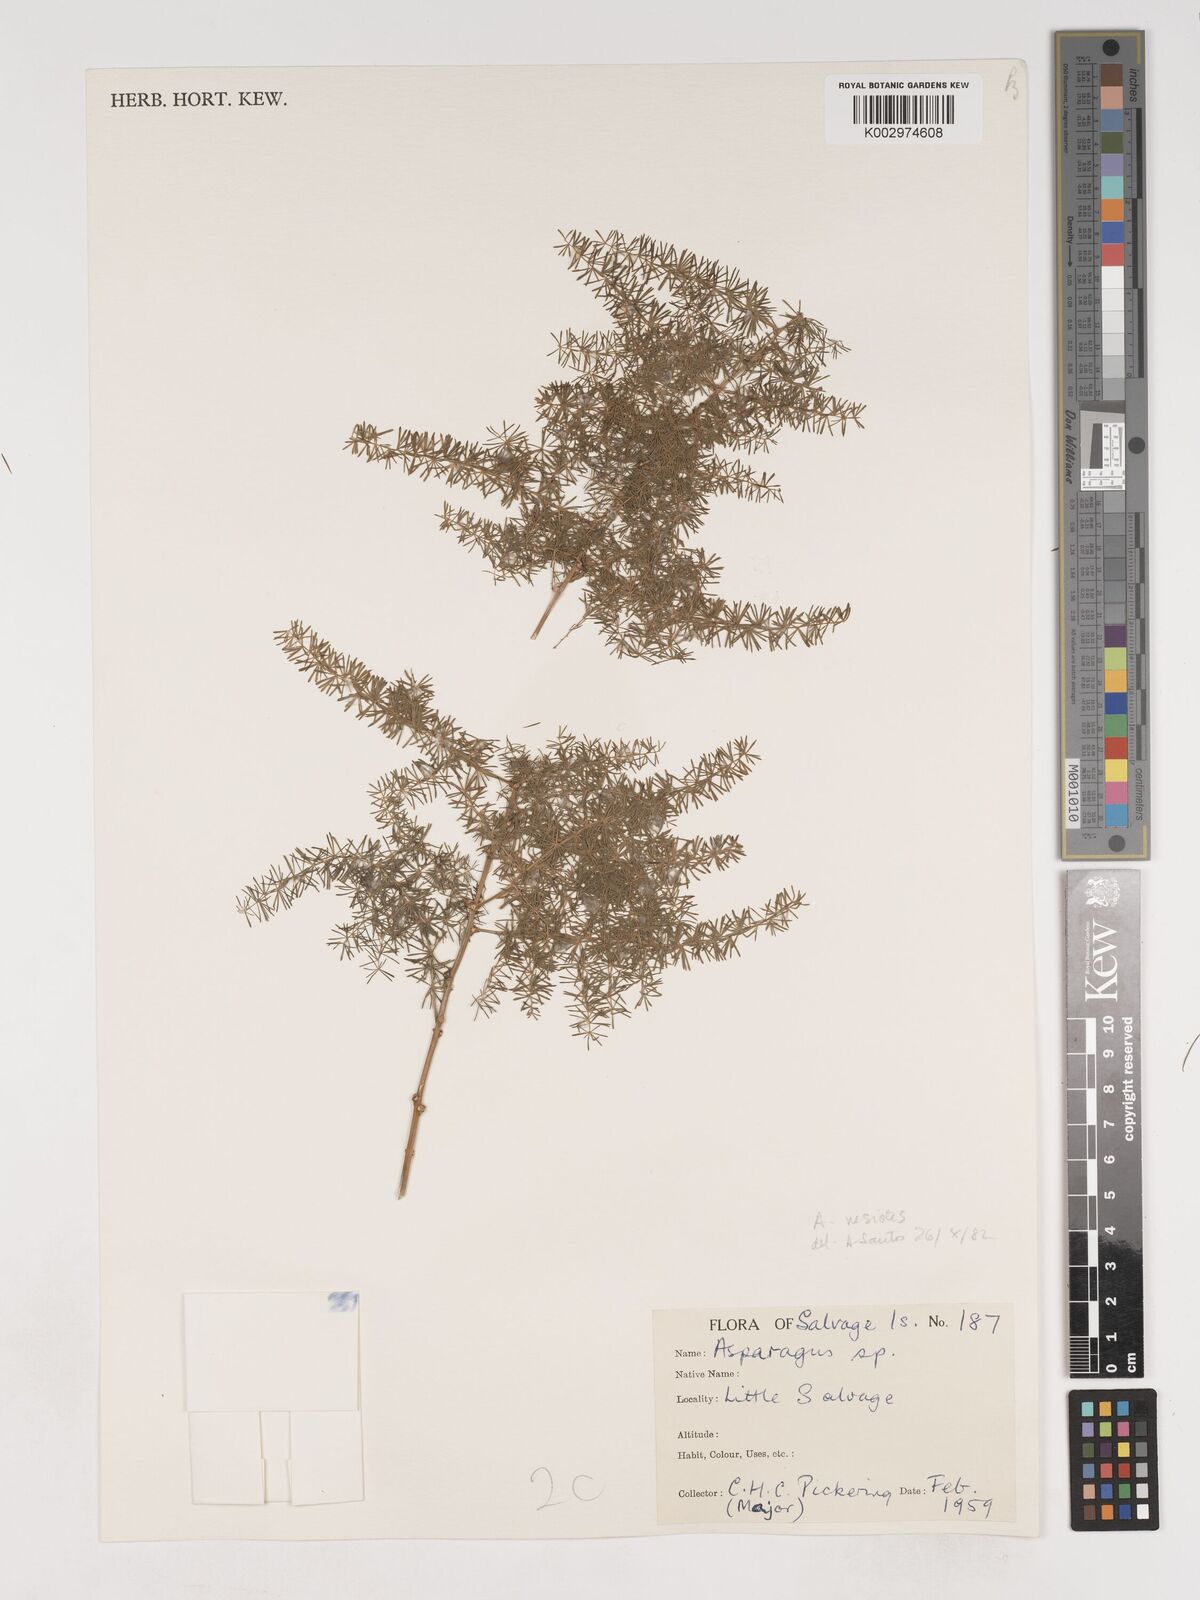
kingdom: Plantae
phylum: Tracheophyta
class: Liliopsida
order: Asparagales
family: Asparagaceae
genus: Asparagus
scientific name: Asparagus acutifolius
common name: Wild asparagus
